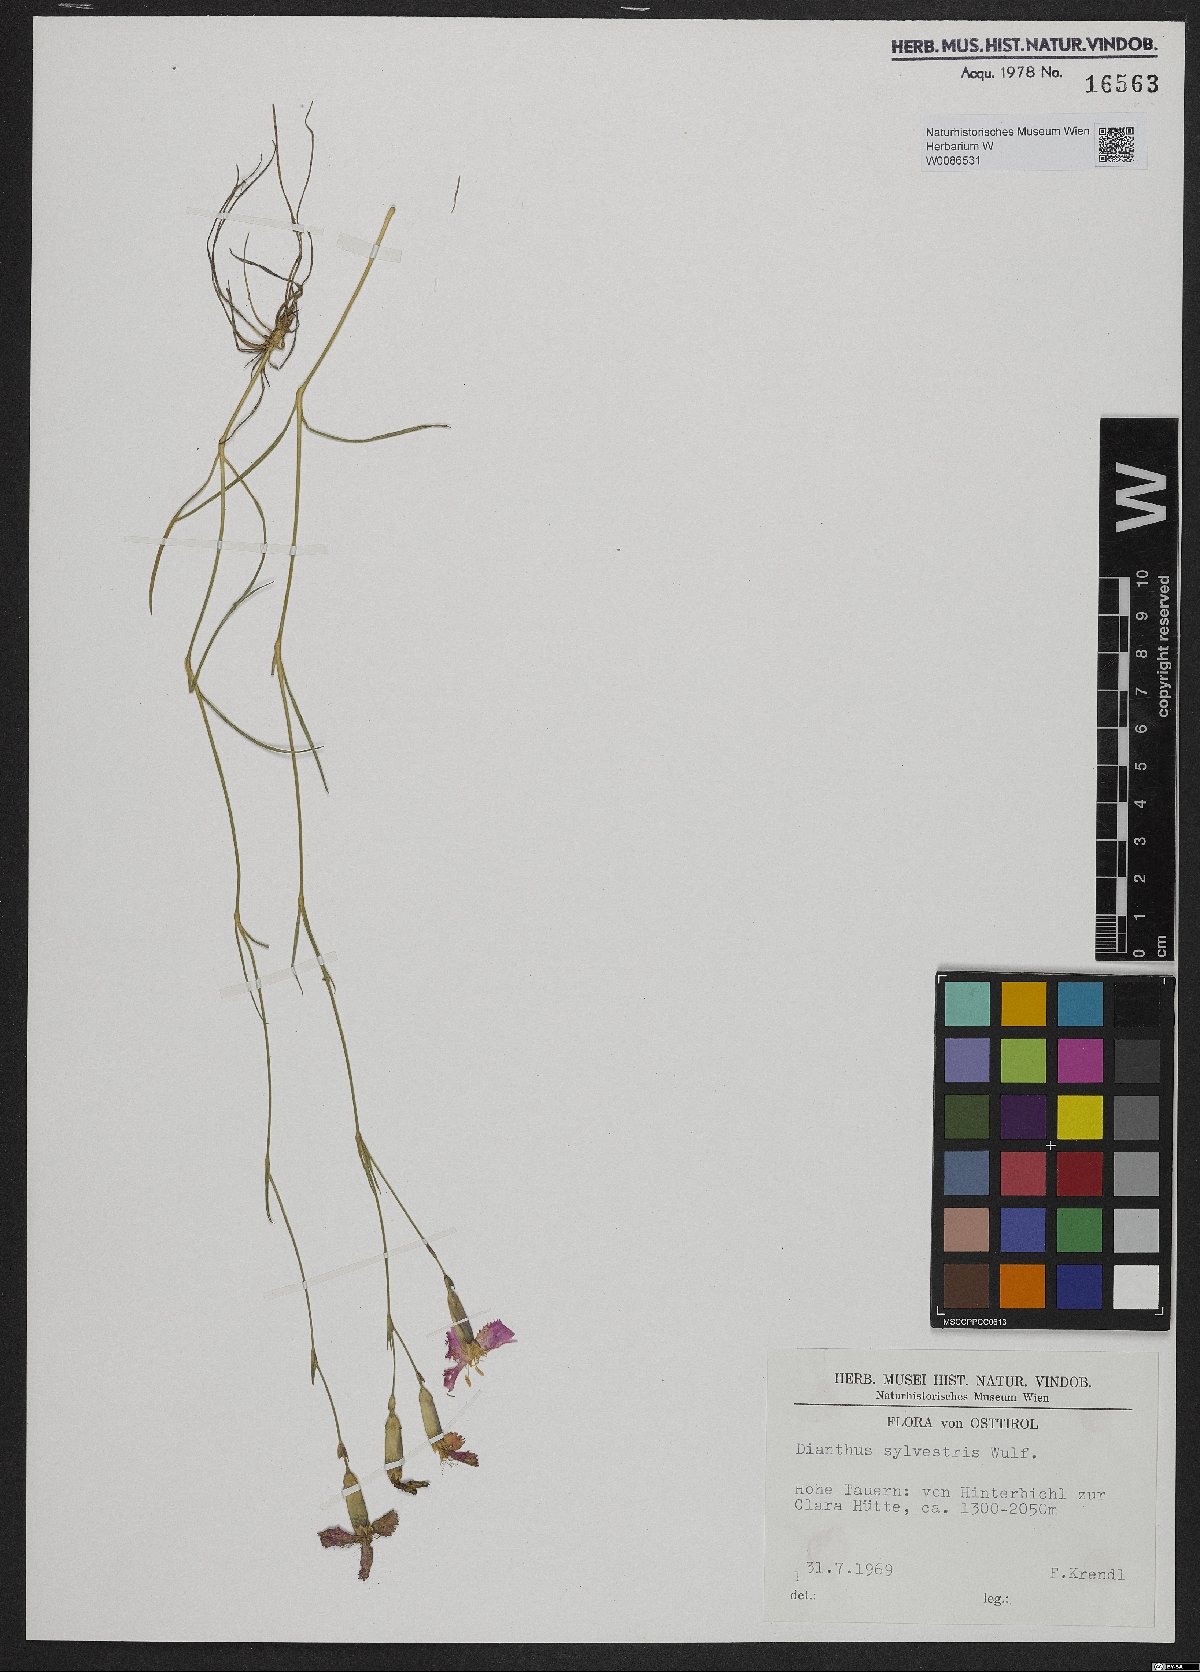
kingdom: Plantae
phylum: Tracheophyta
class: Magnoliopsida
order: Caryophyllales
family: Caryophyllaceae
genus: Dianthus
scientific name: Dianthus sylvestris
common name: Wood pink
